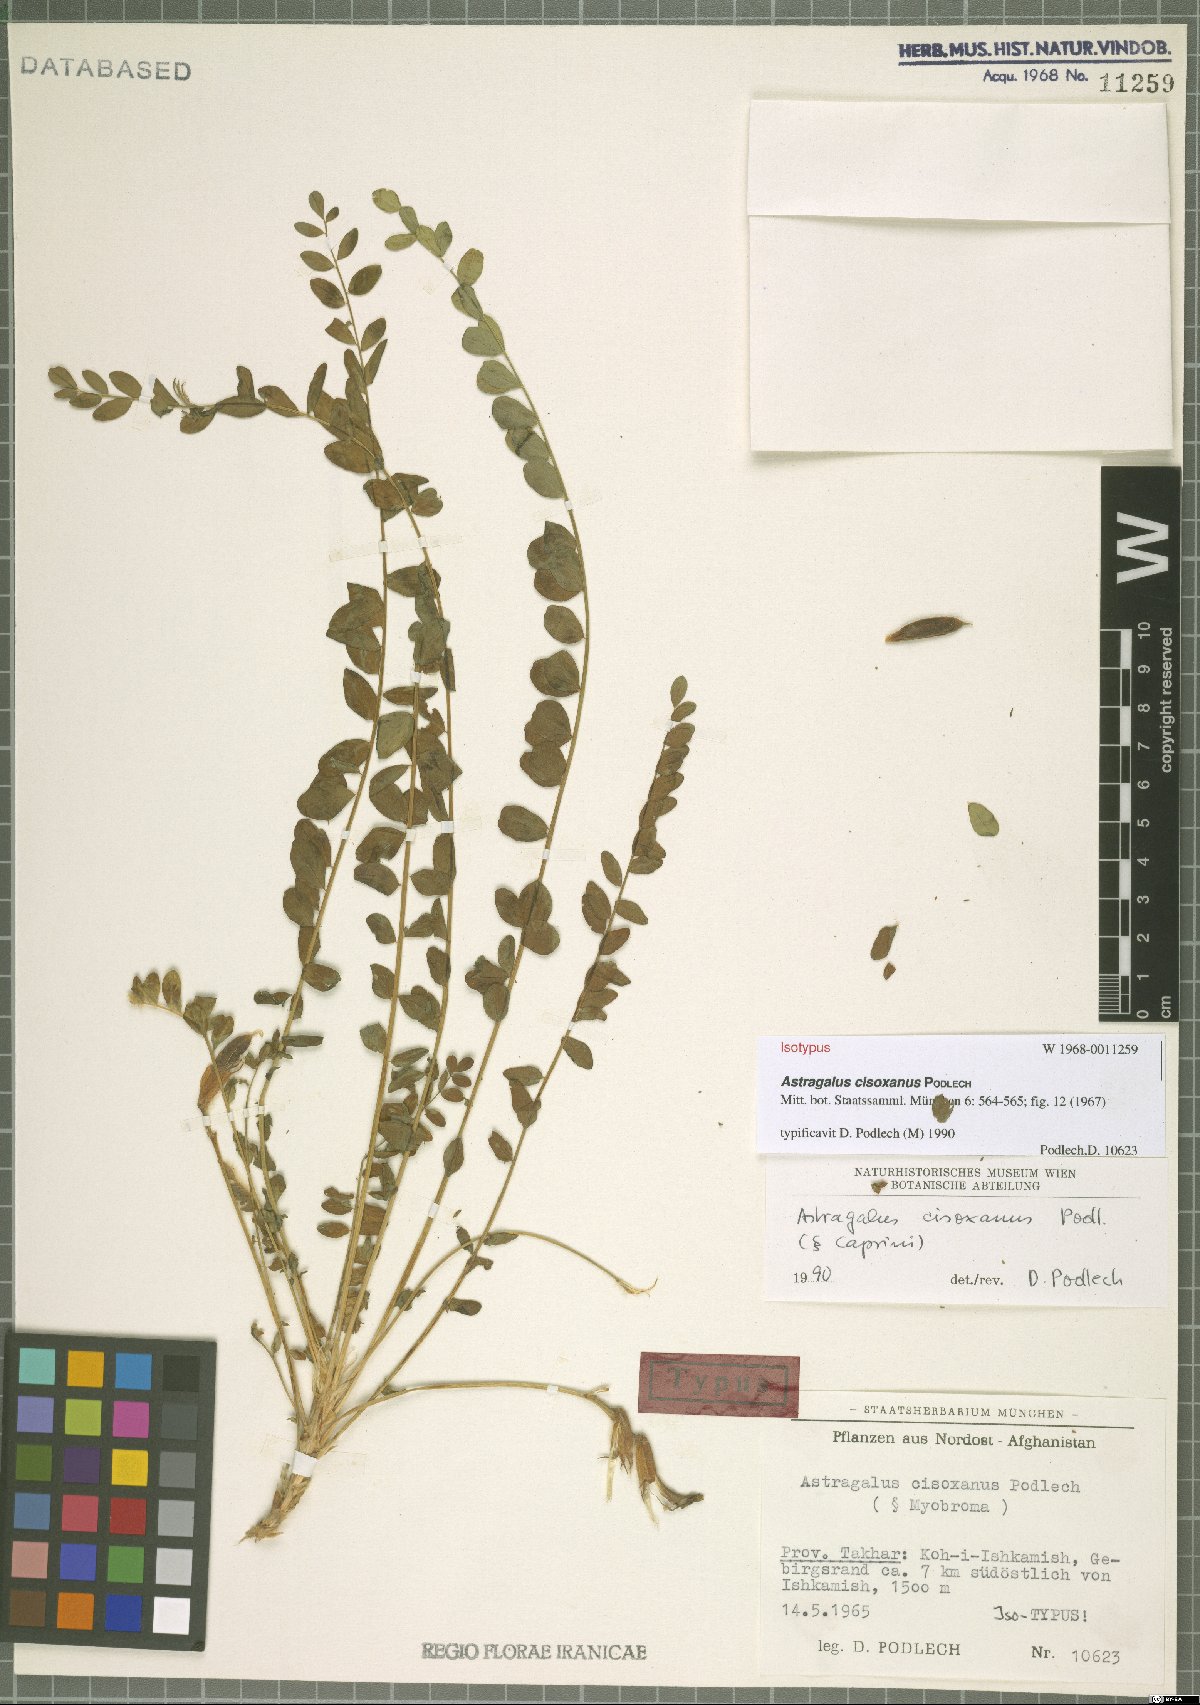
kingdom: Plantae
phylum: Tracheophyta
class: Magnoliopsida
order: Fabales
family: Fabaceae
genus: Astragalus
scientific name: Astragalus cisoxanus
